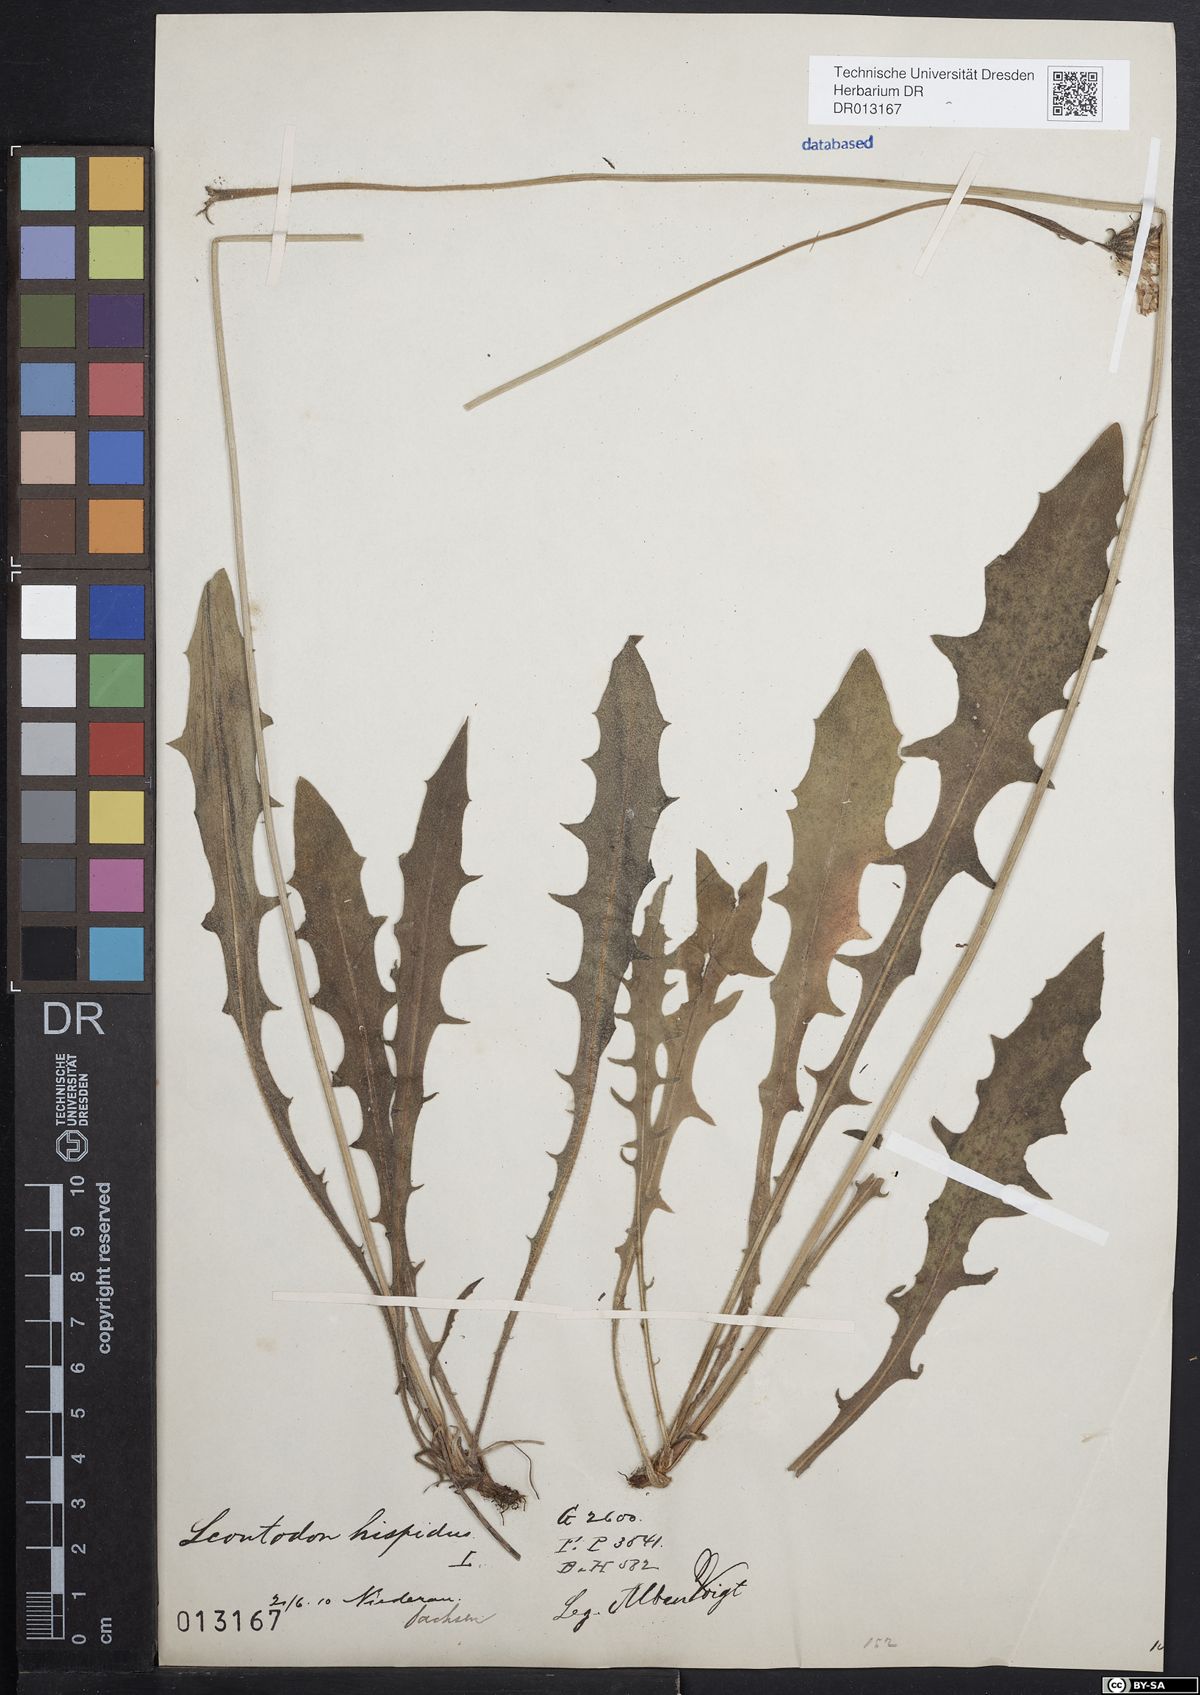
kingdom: Plantae
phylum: Tracheophyta
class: Magnoliopsida
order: Asterales
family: Asteraceae
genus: Leontodon
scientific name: Leontodon hispidus
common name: Rough hawkbit
